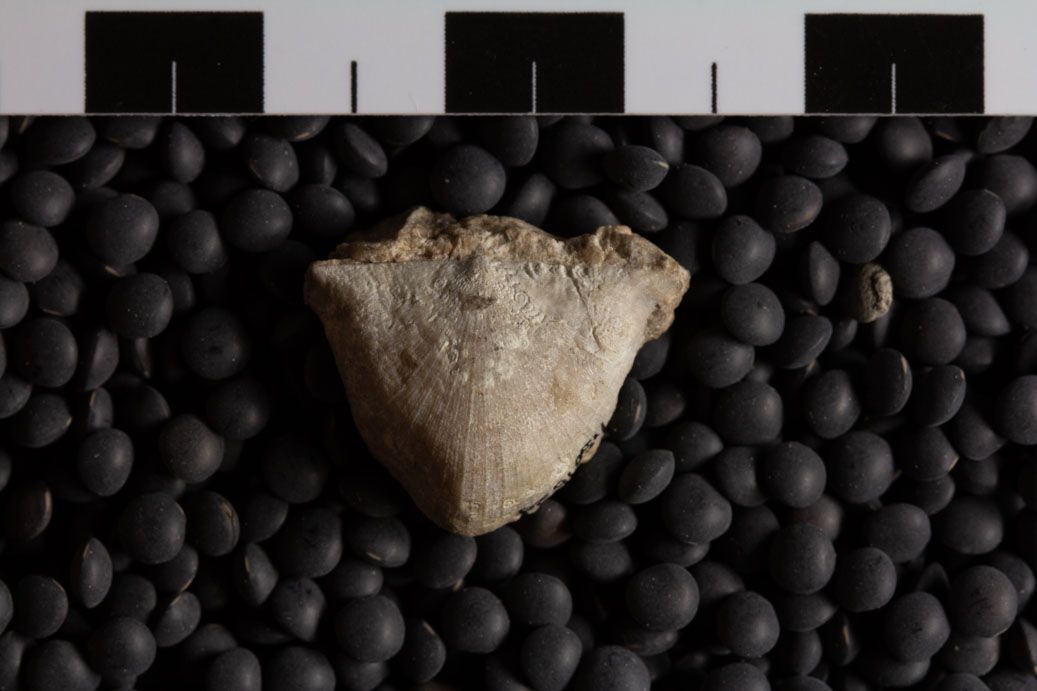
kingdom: Animalia
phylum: Brachiopoda
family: Strophomenidae
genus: Rafinesquina
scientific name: Rafinesquina Leptaena alternata
